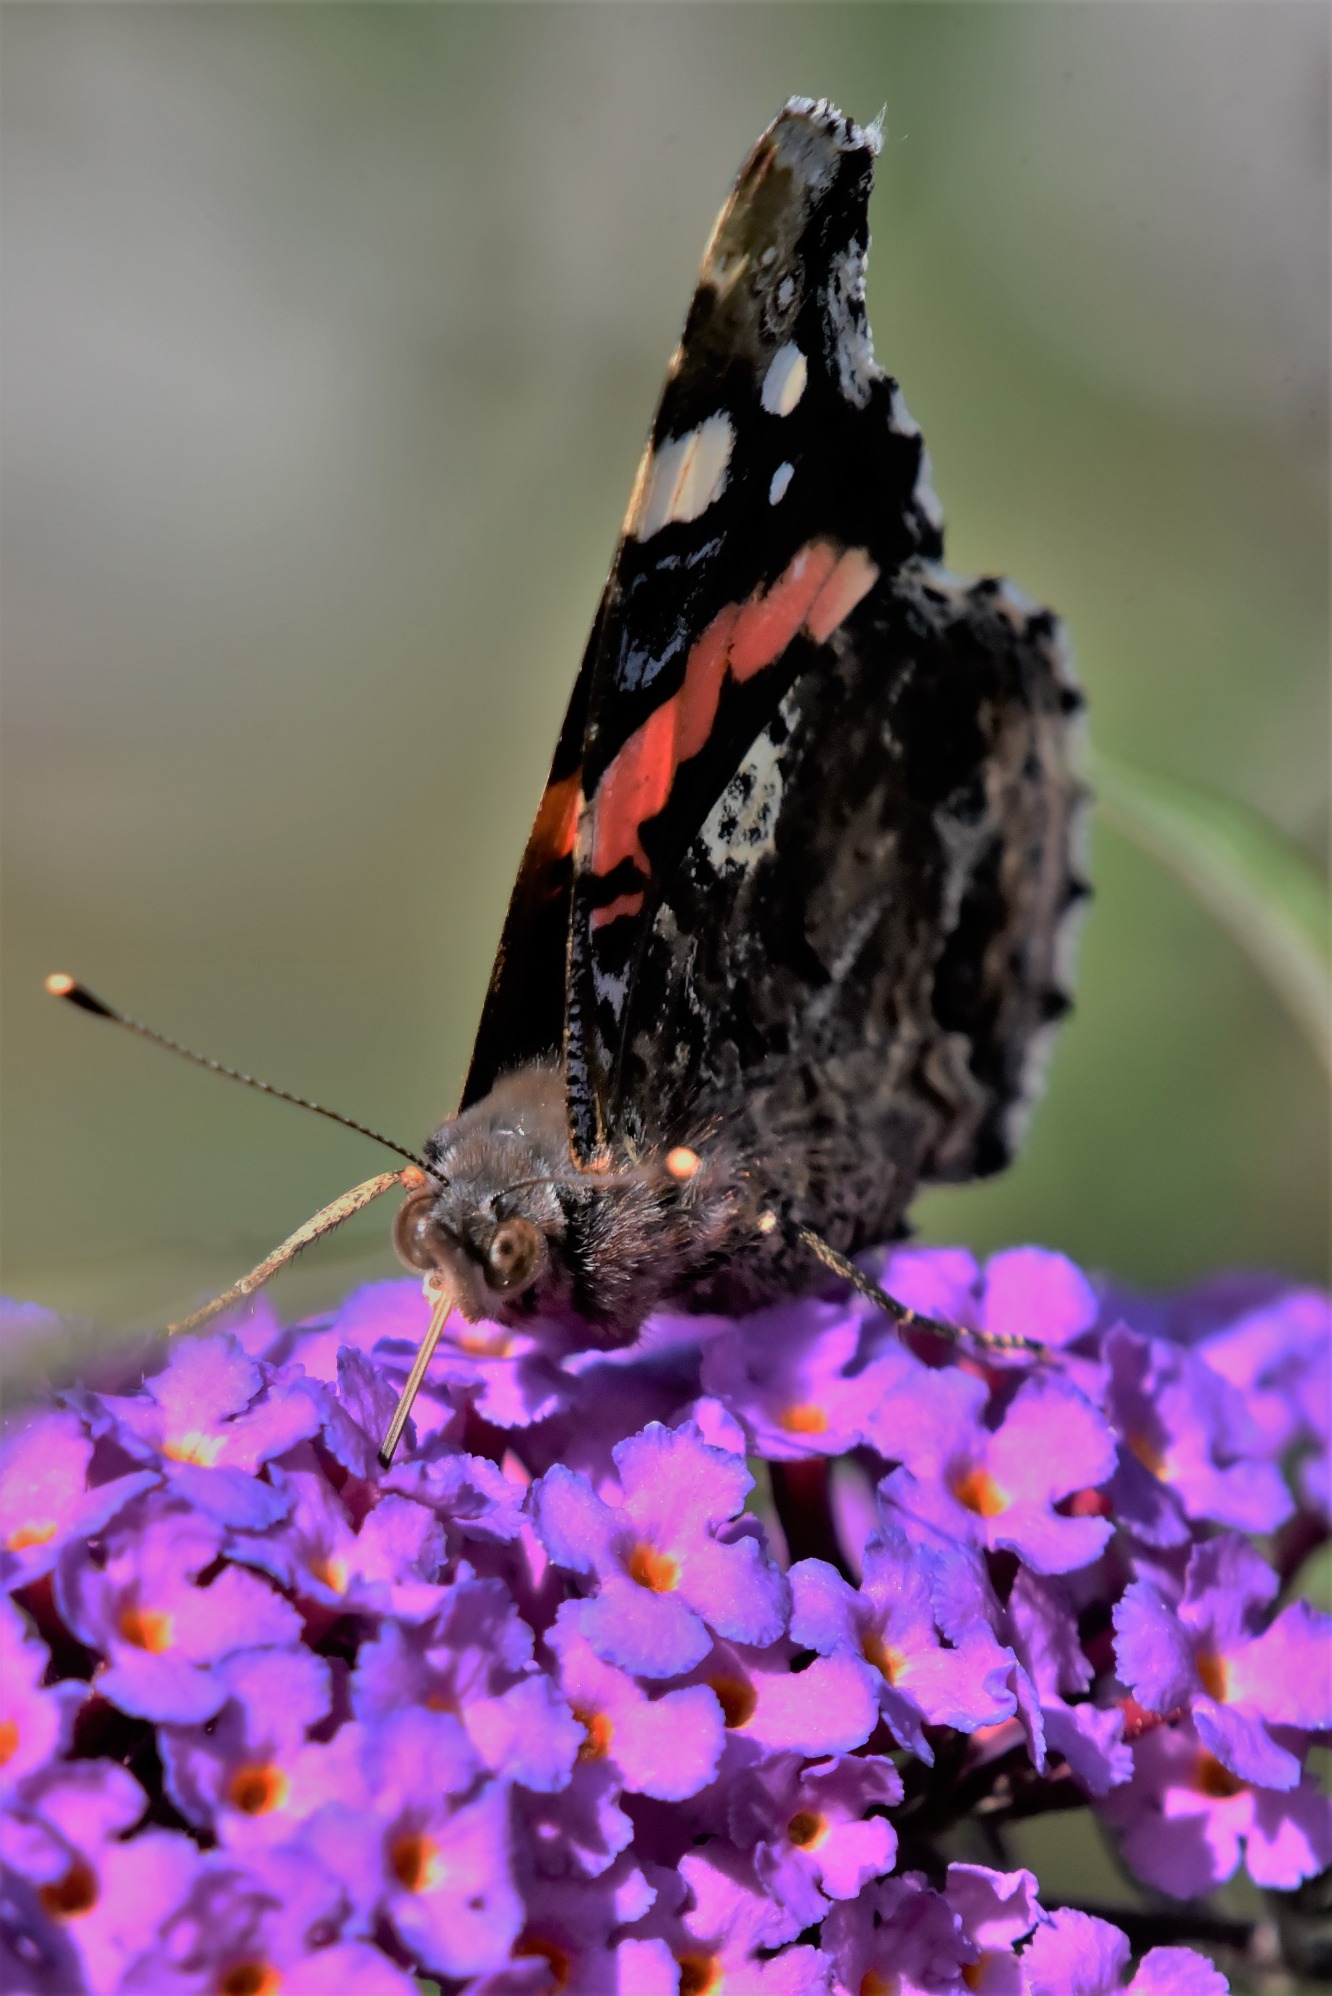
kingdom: Animalia
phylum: Arthropoda
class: Insecta
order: Lepidoptera
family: Nymphalidae
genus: Vanessa
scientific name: Vanessa atalanta
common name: Admiral
